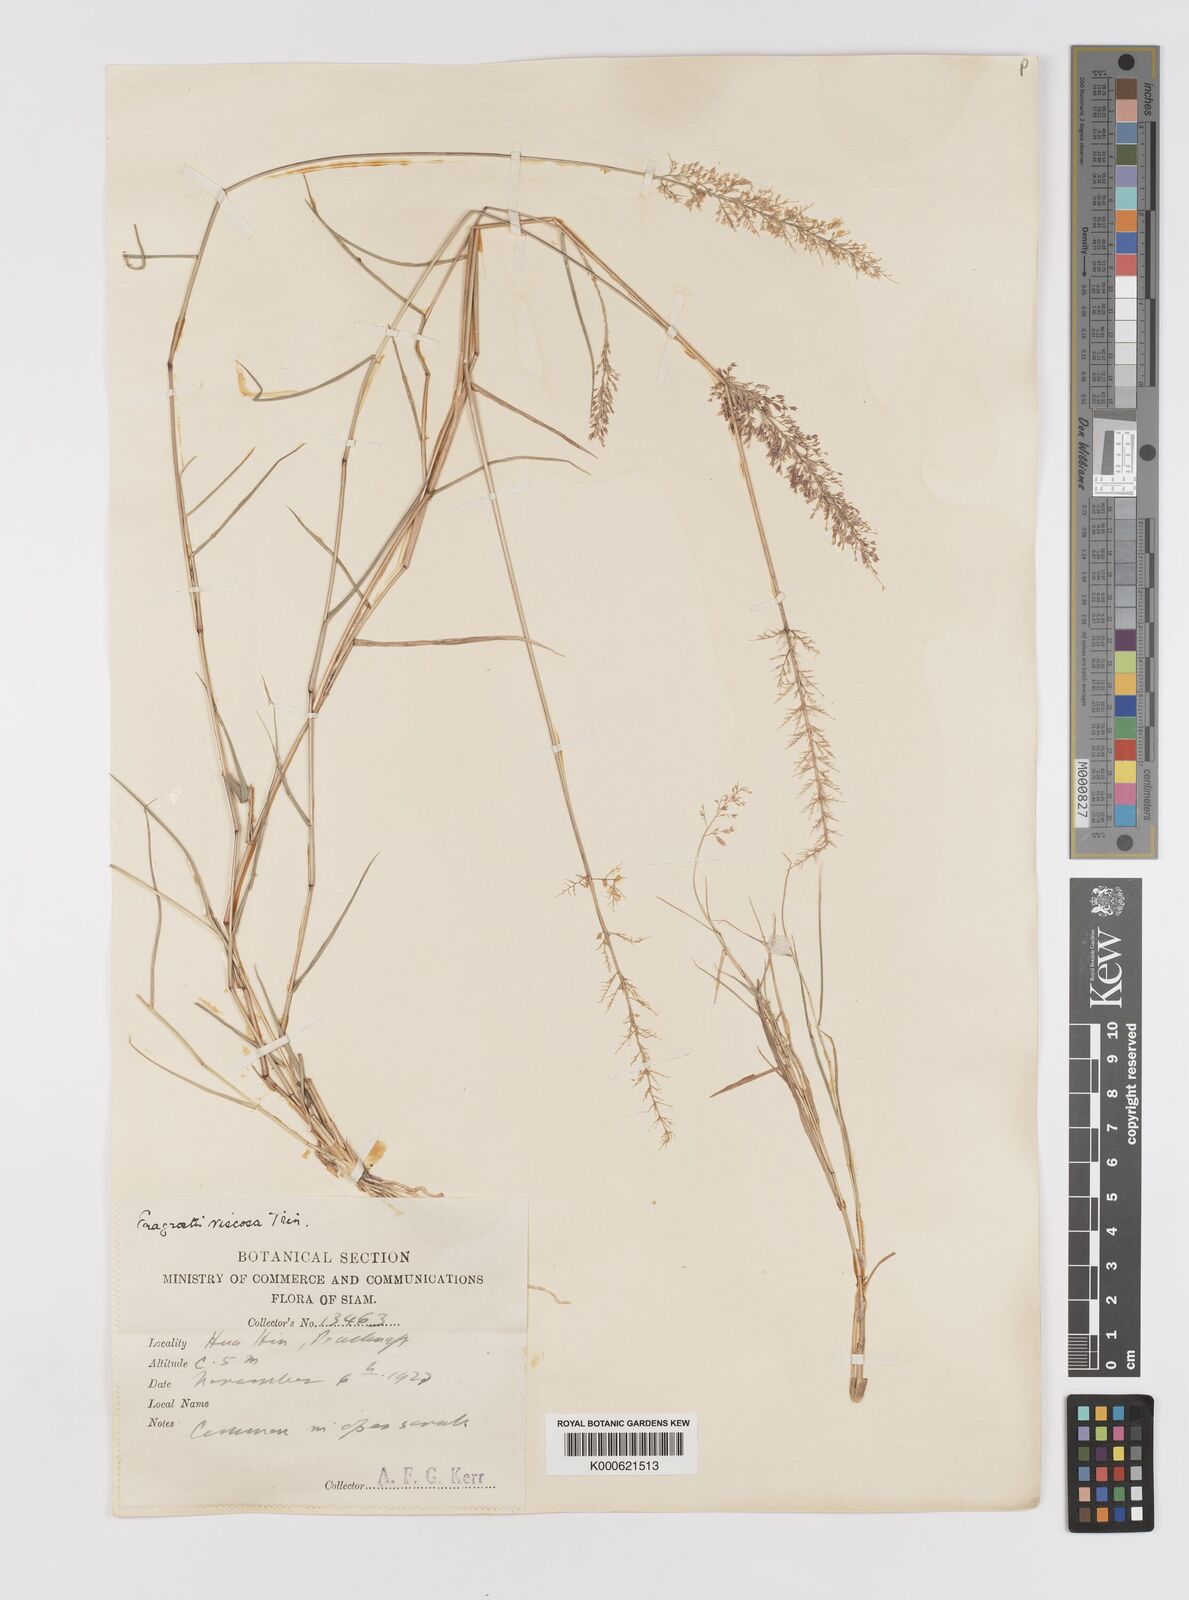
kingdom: Plantae
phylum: Tracheophyta
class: Liliopsida
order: Poales
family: Poaceae
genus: Eragrostis
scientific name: Eragrostis viscosa
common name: Sticky love grass
